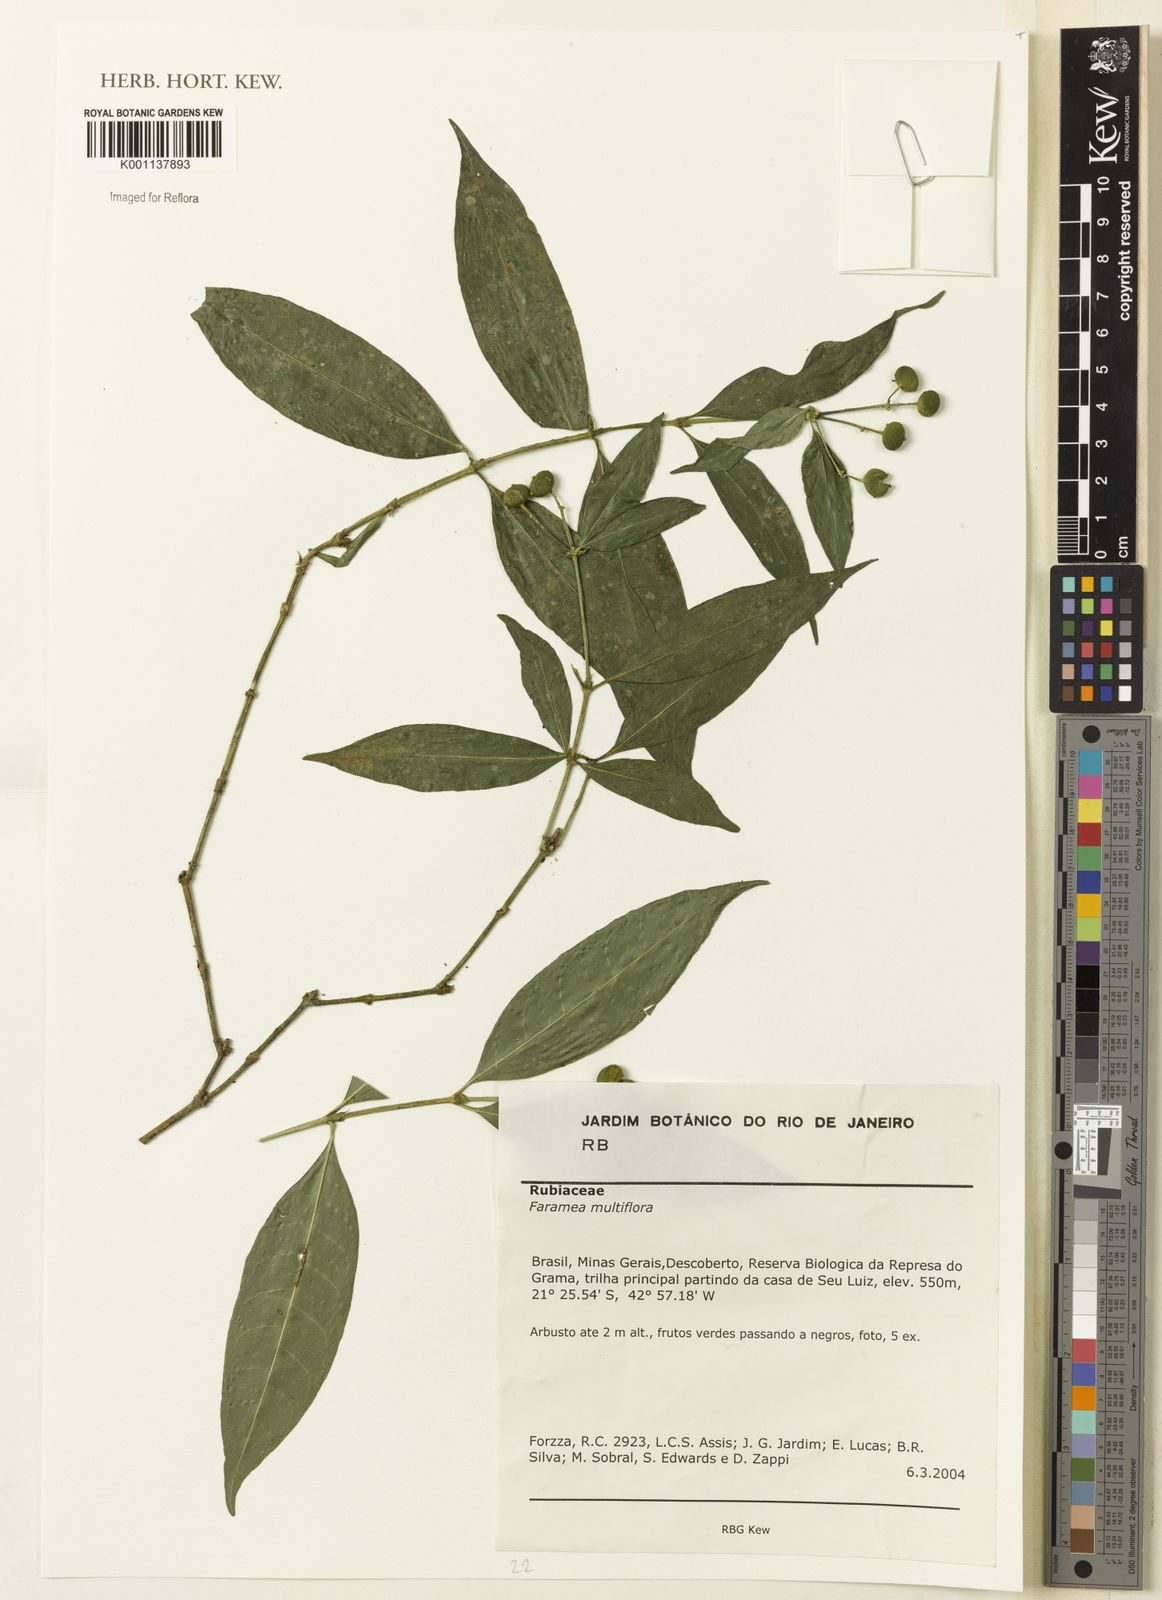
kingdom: Plantae
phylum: Tracheophyta
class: Magnoliopsida
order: Gentianales
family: Rubiaceae
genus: Faramea
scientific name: Faramea multiflora
